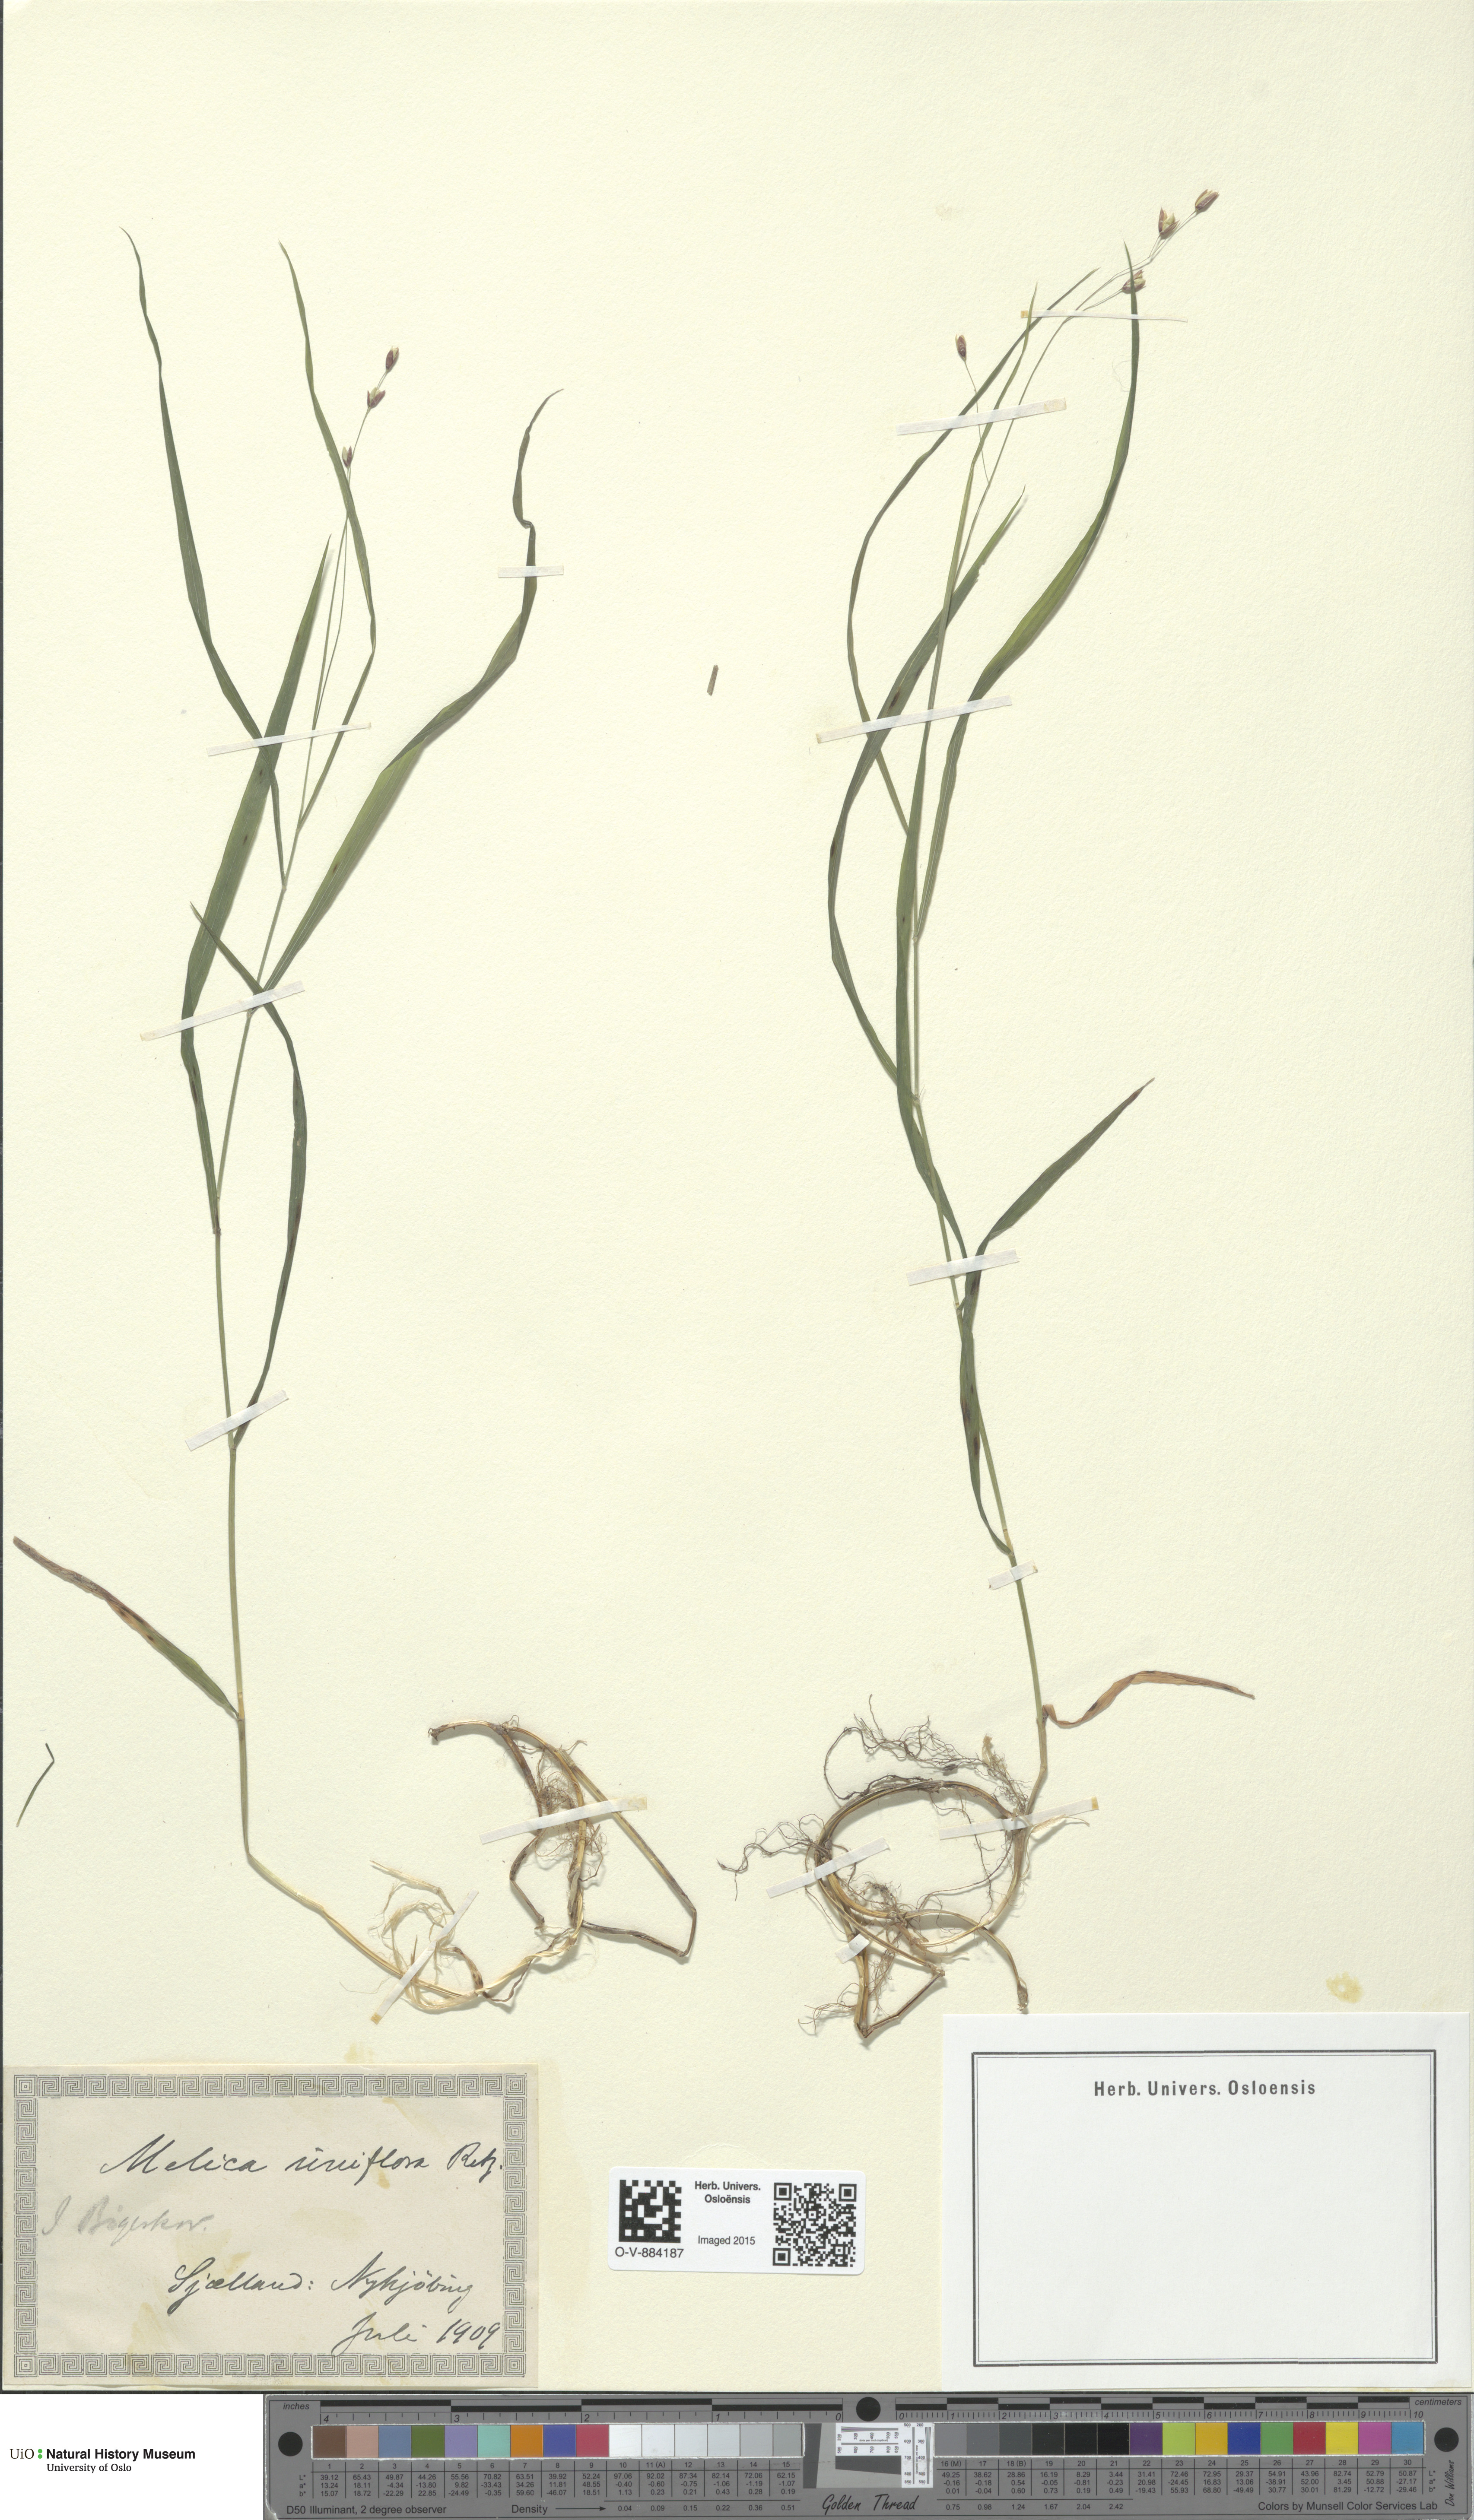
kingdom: Plantae
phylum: Tracheophyta
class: Liliopsida
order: Poales
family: Poaceae
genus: Melica
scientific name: Melica uniflora
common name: Wood melick
